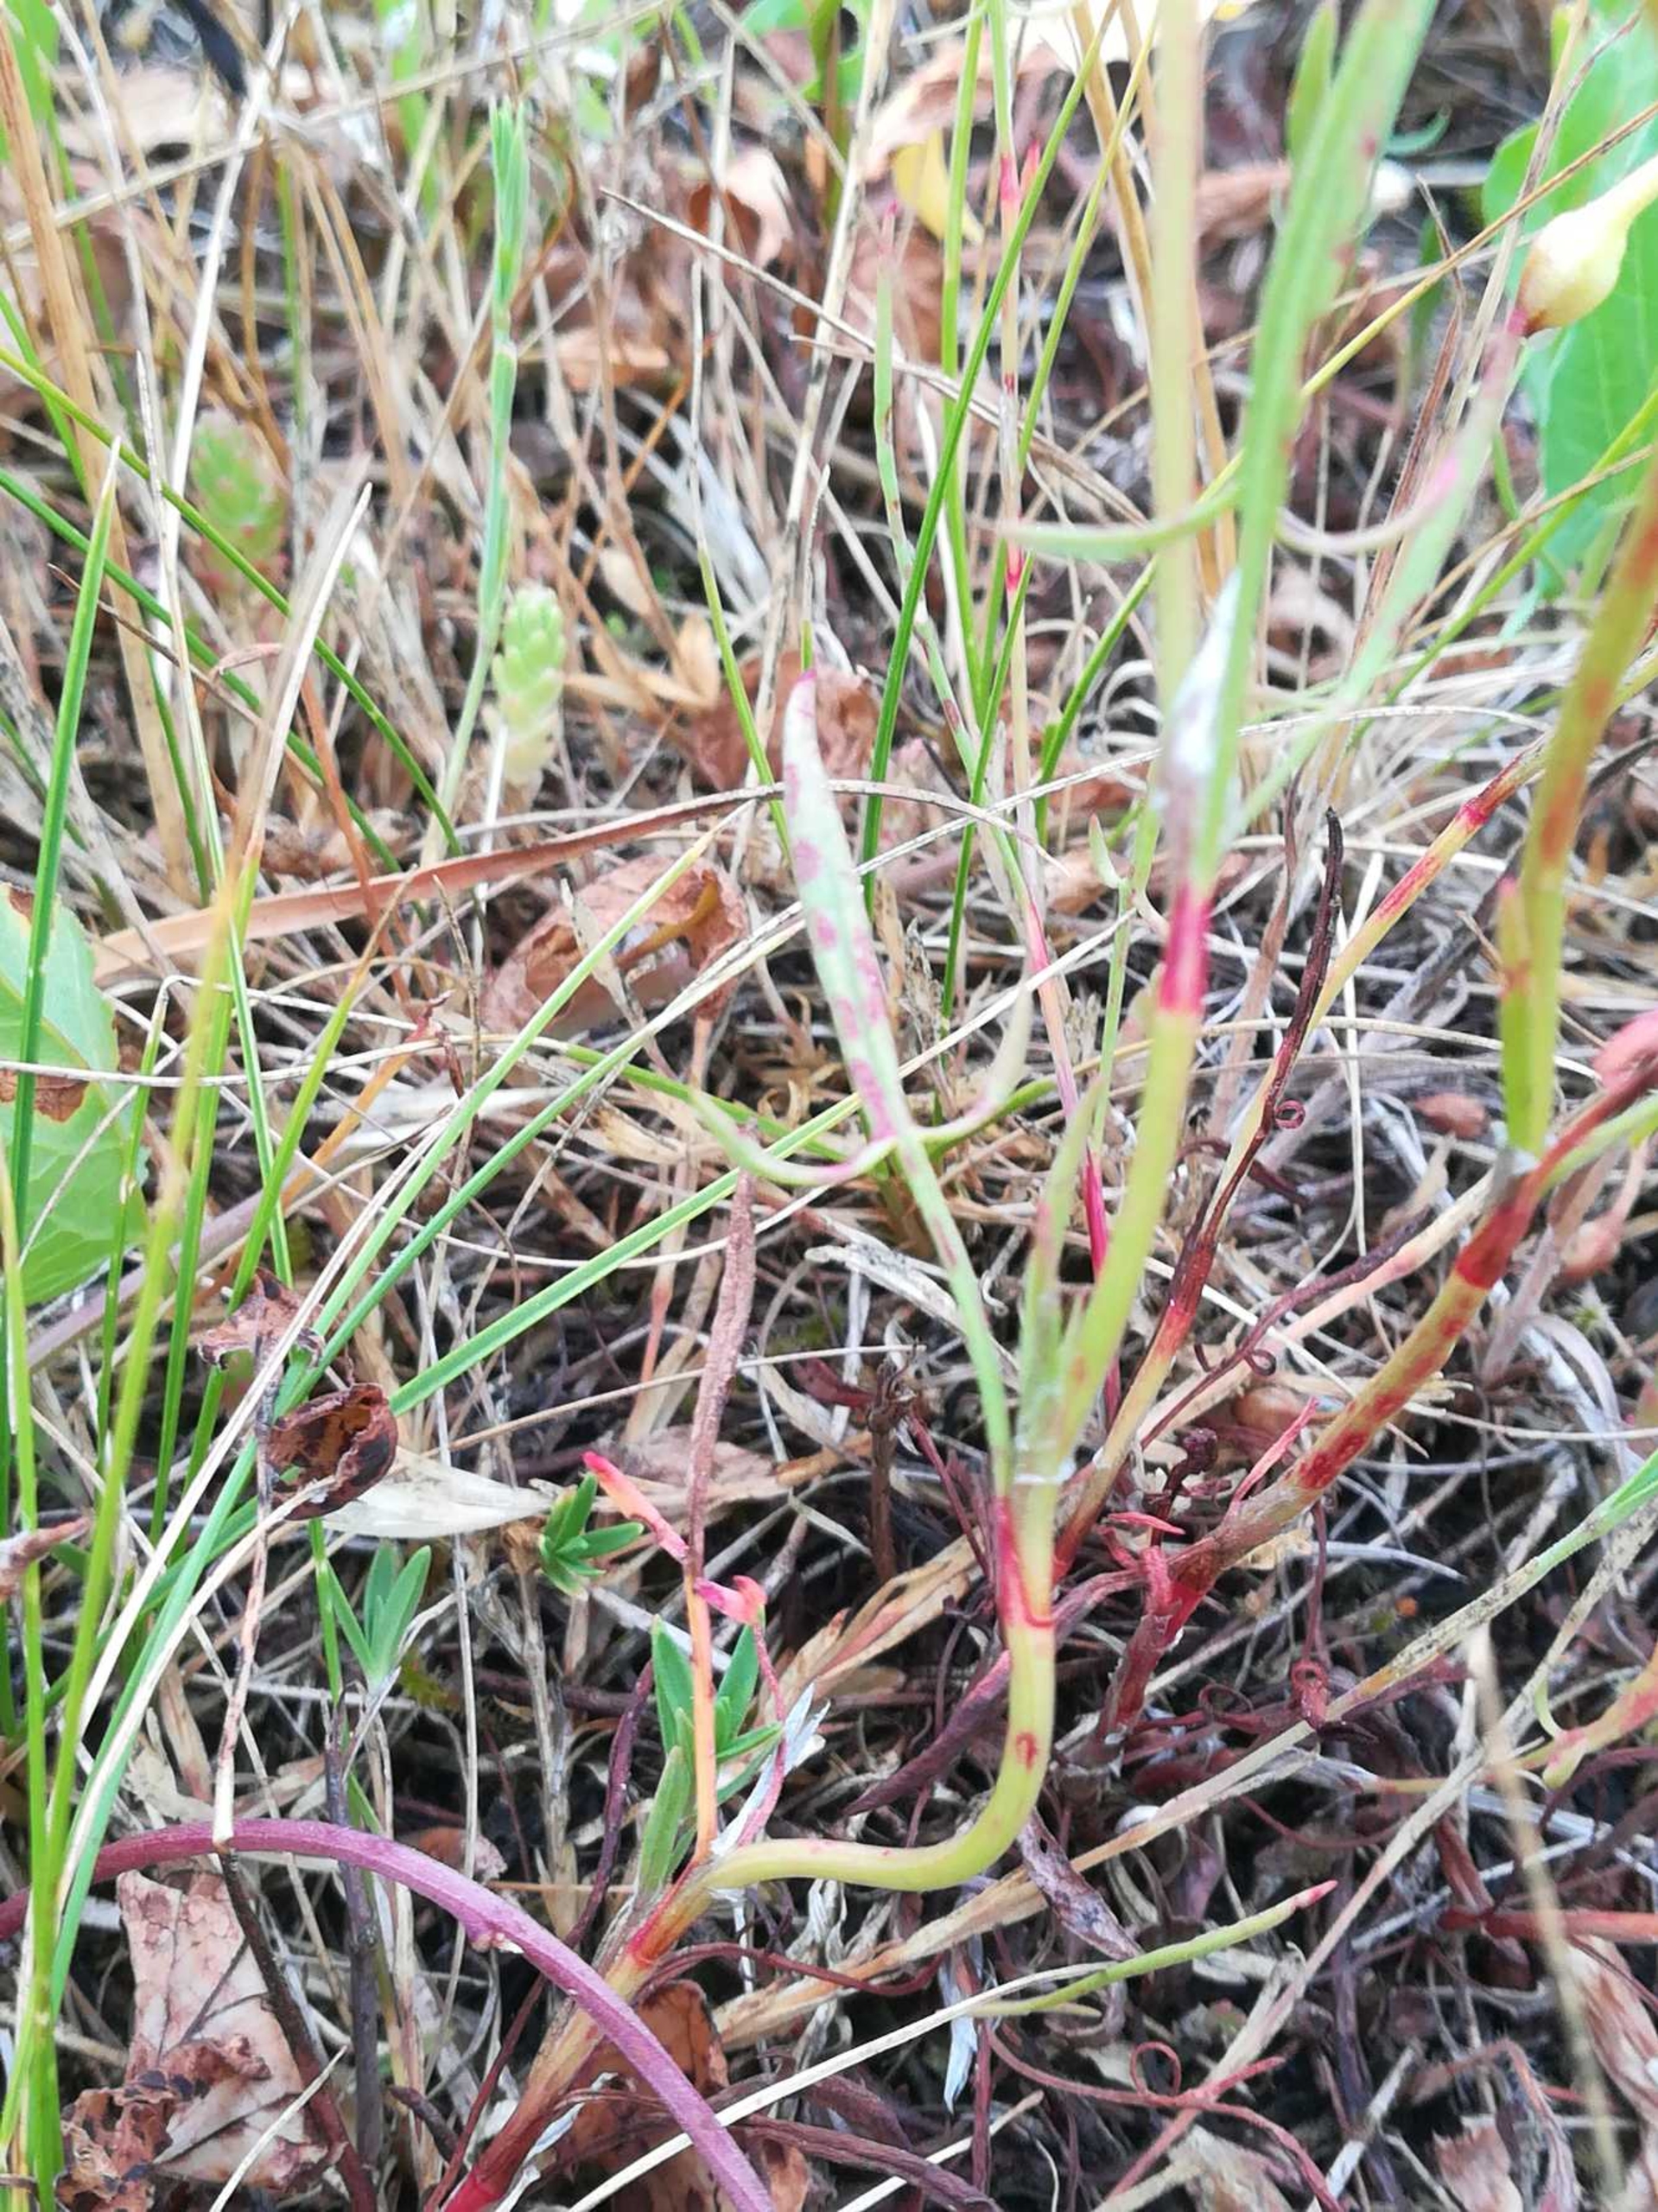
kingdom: Plantae
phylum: Tracheophyta
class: Magnoliopsida
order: Caryophyllales
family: Polygonaceae
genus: Rumex
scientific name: Rumex acetosella
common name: Finbladet rødknæ
